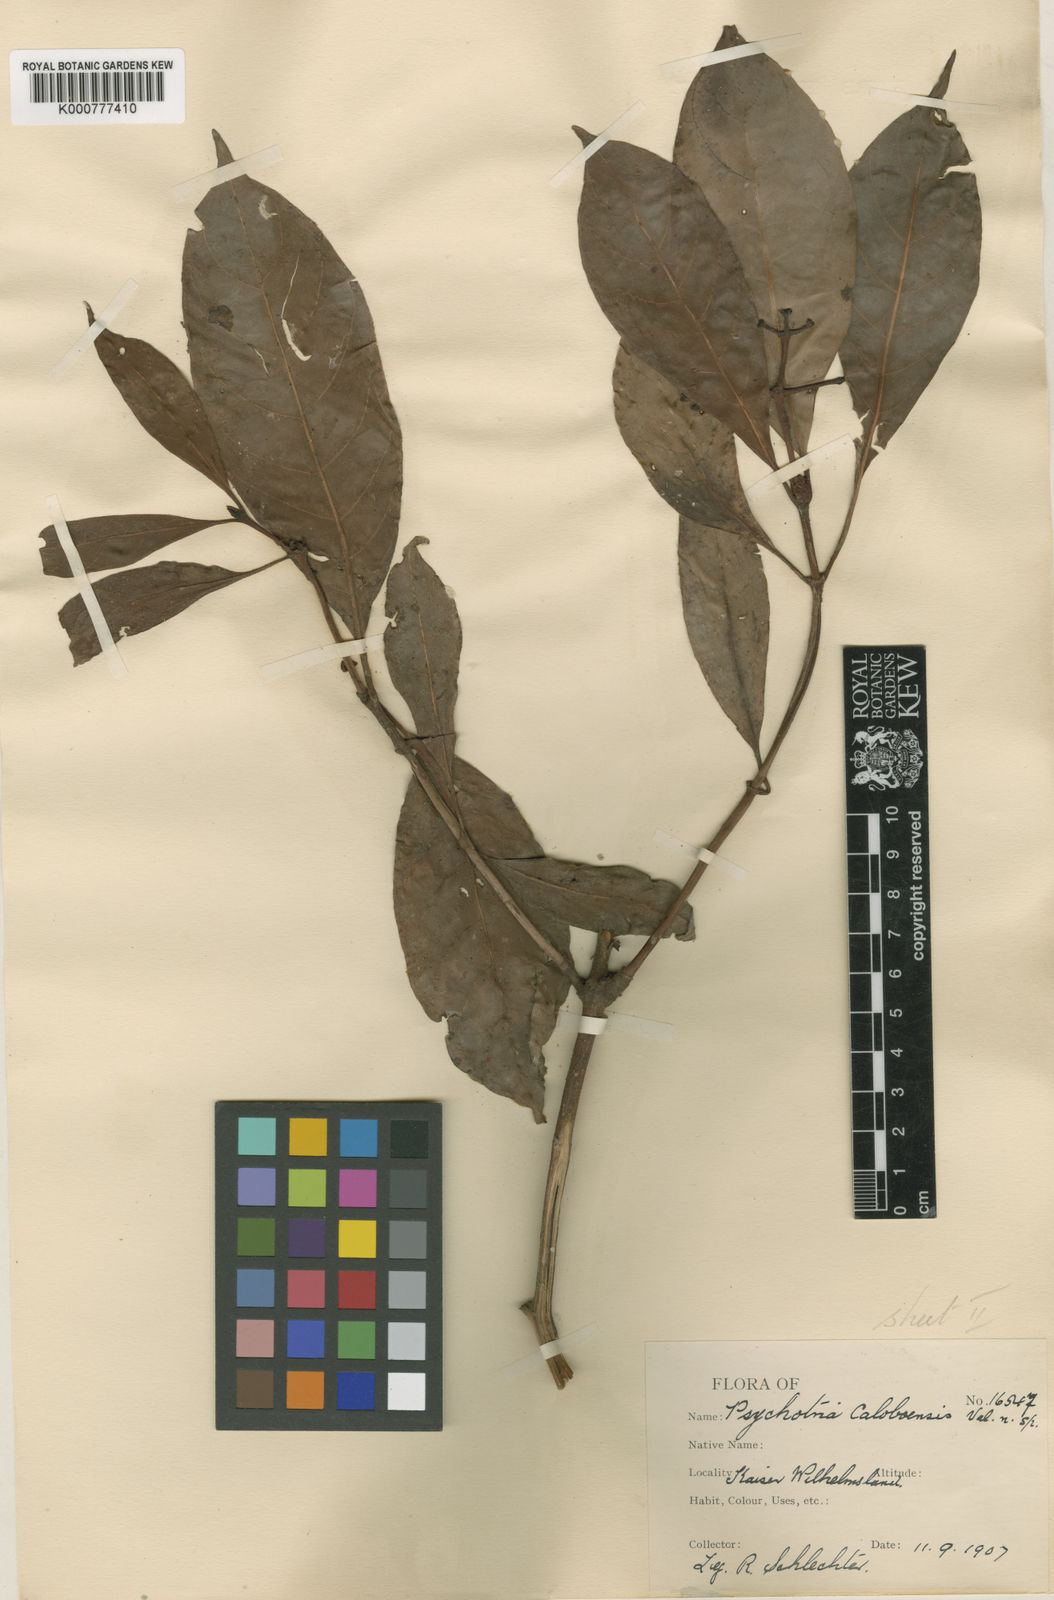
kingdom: Plantae
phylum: Tracheophyta
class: Magnoliopsida
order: Gentianales
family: Rubiaceae
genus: Psychotria
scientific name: Psychotria boloboensis
